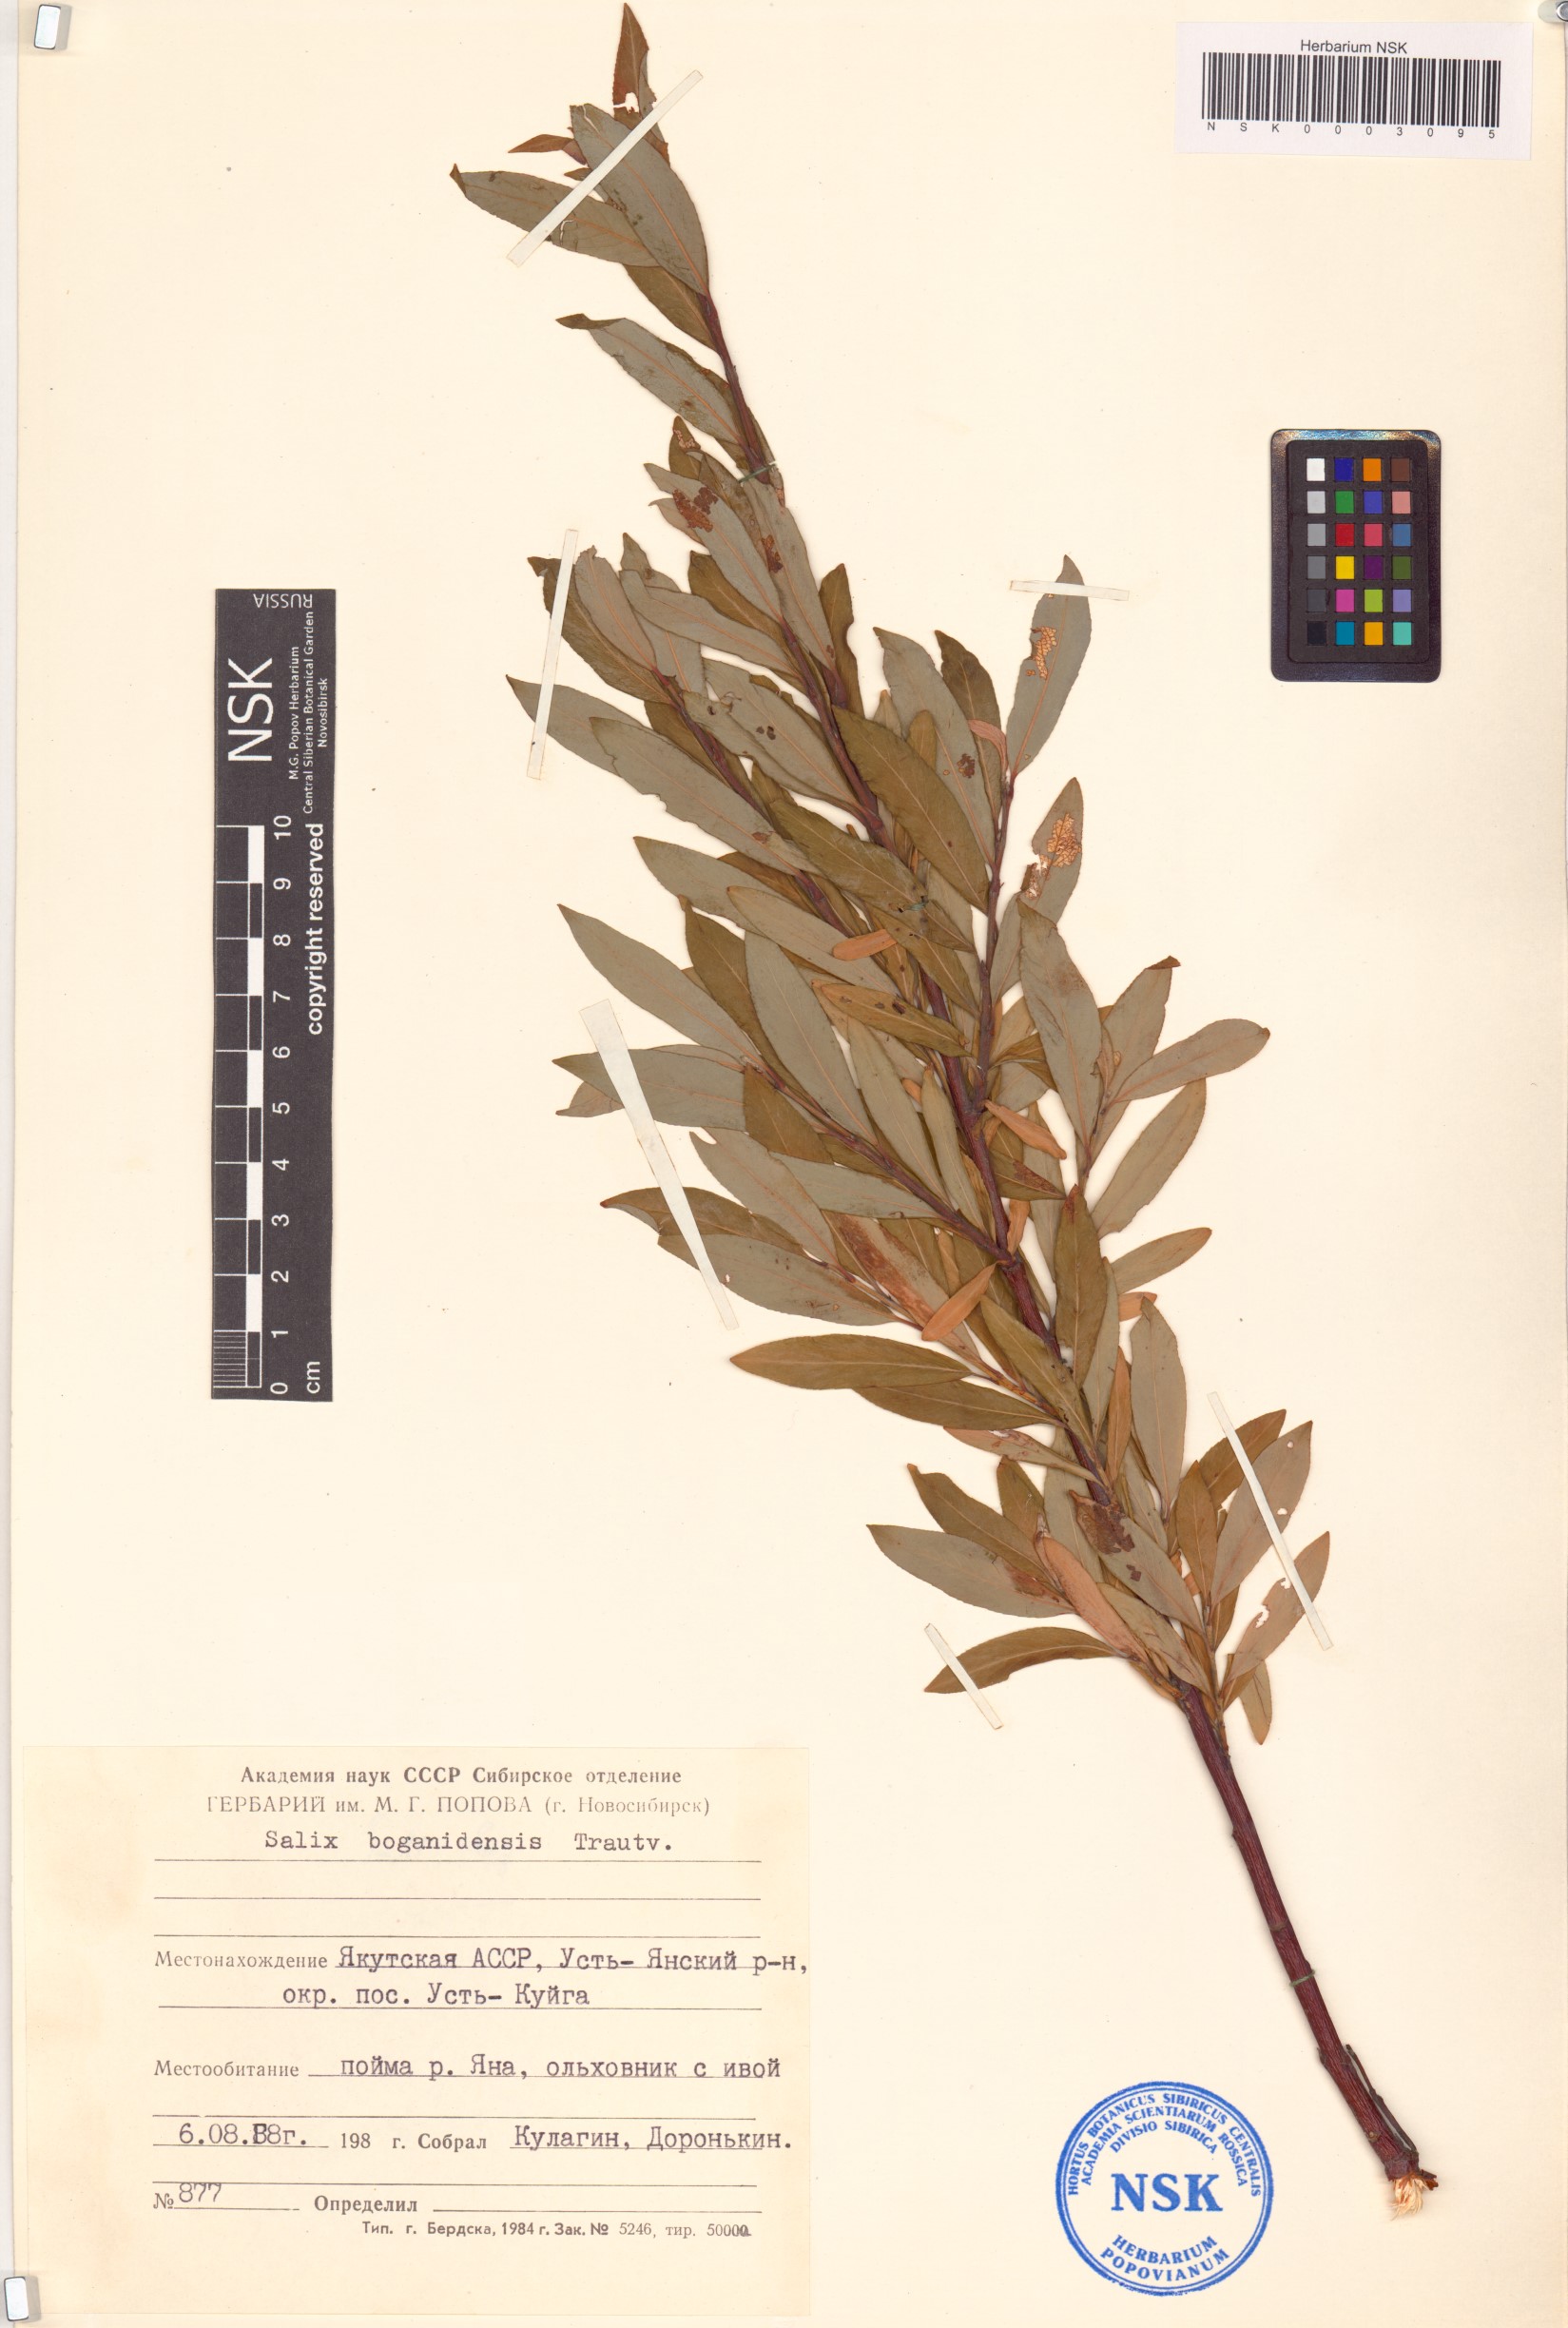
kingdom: Plantae
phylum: Tracheophyta
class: Magnoliopsida
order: Malpighiales
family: Salicaceae
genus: Salix
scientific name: Salix boganidensis
